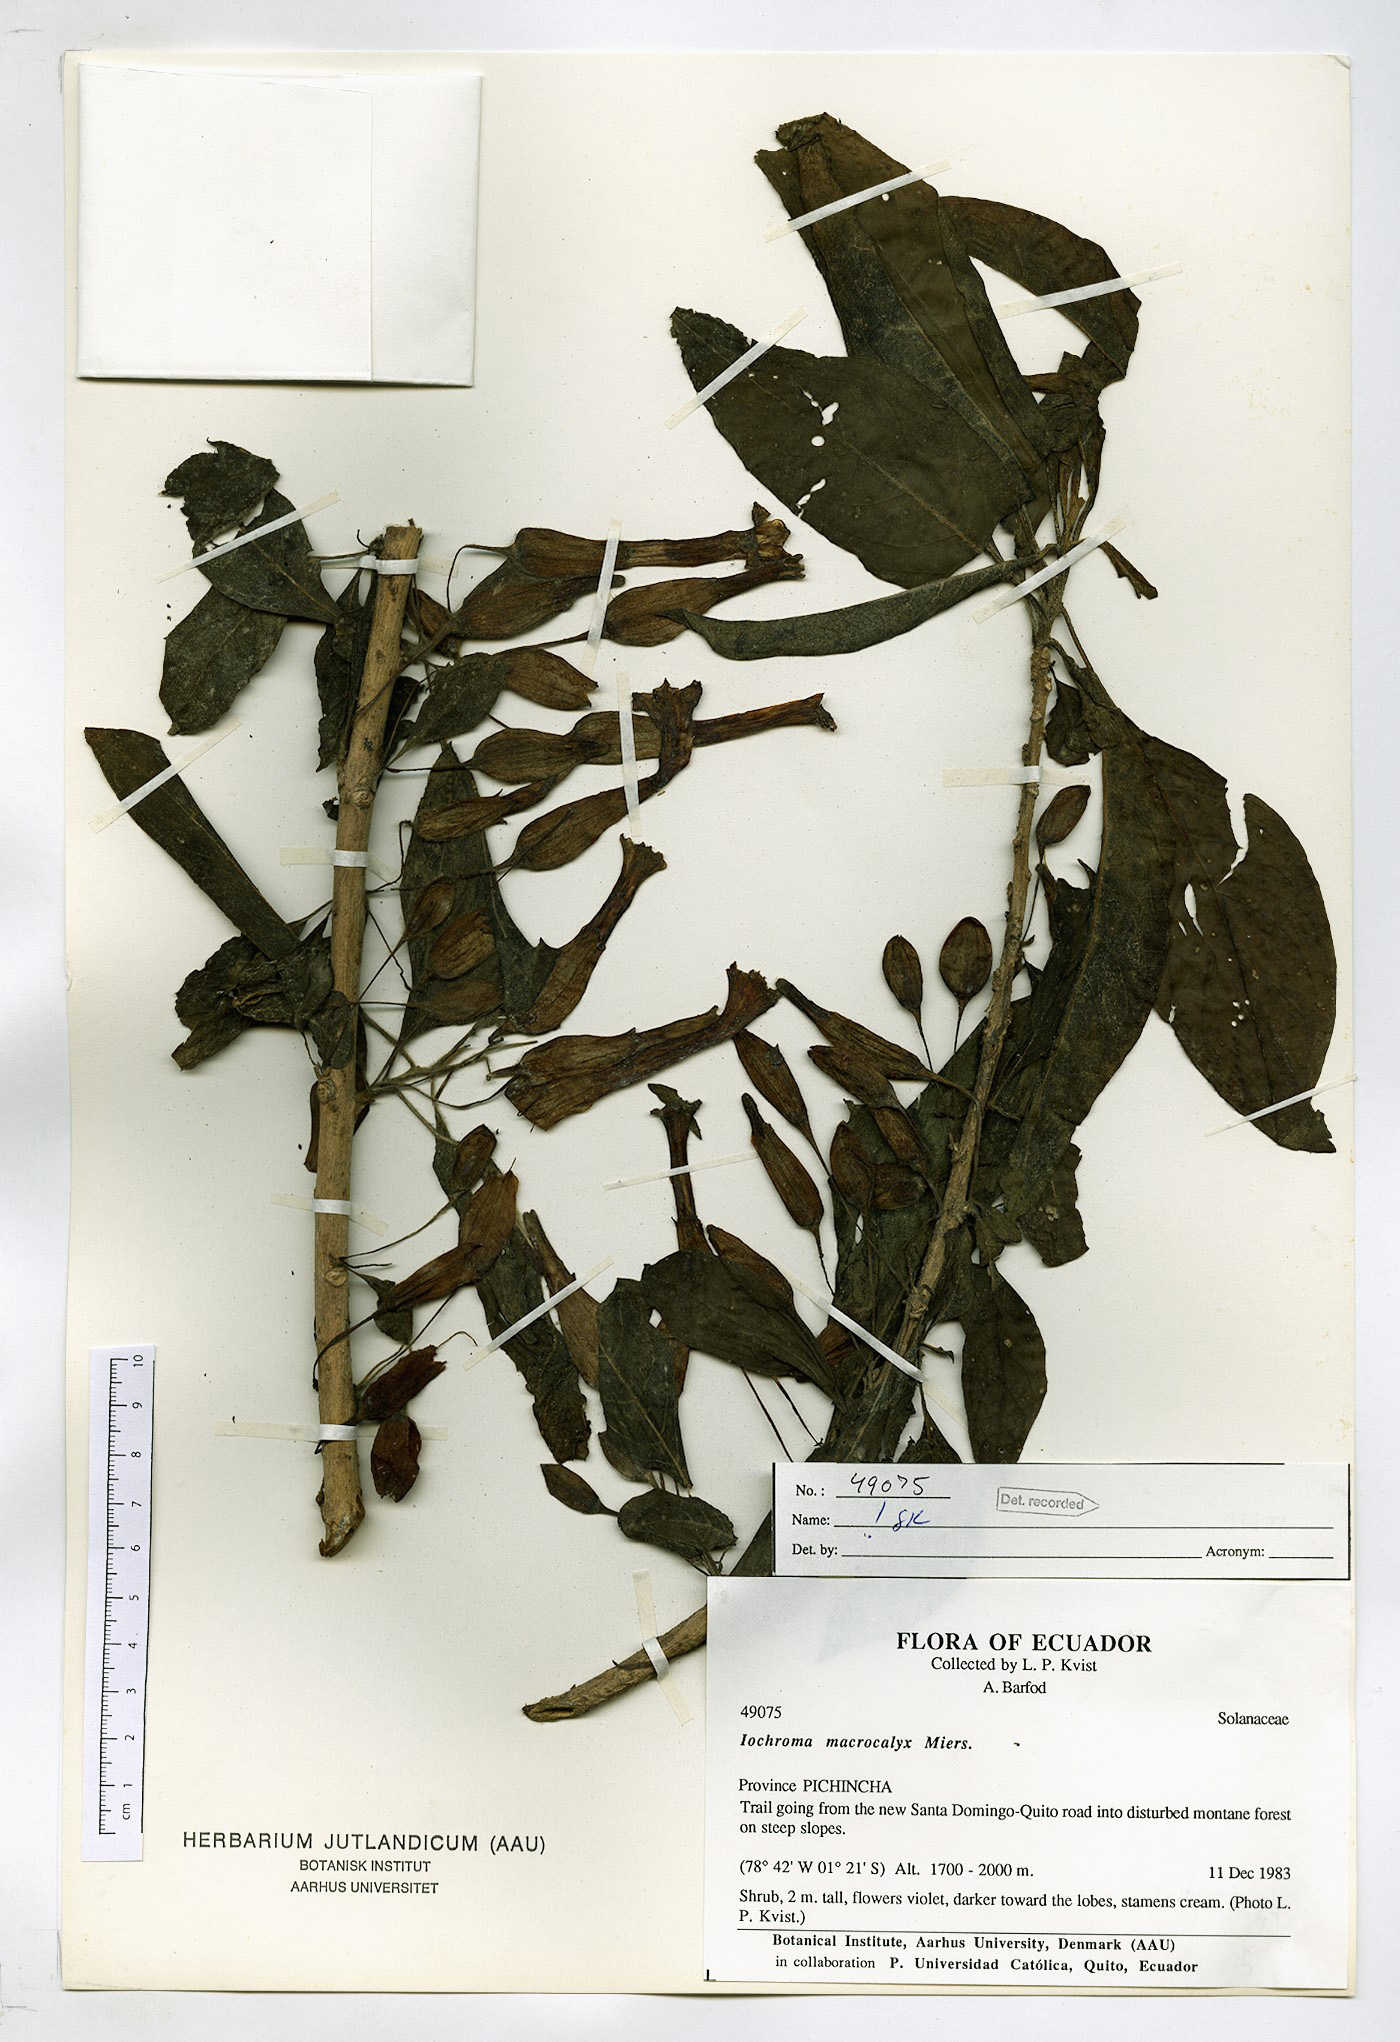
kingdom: Plantae
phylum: Tracheophyta
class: Magnoliopsida
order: Solanales
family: Solanaceae
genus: Iochroma
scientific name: Iochroma calycinum
